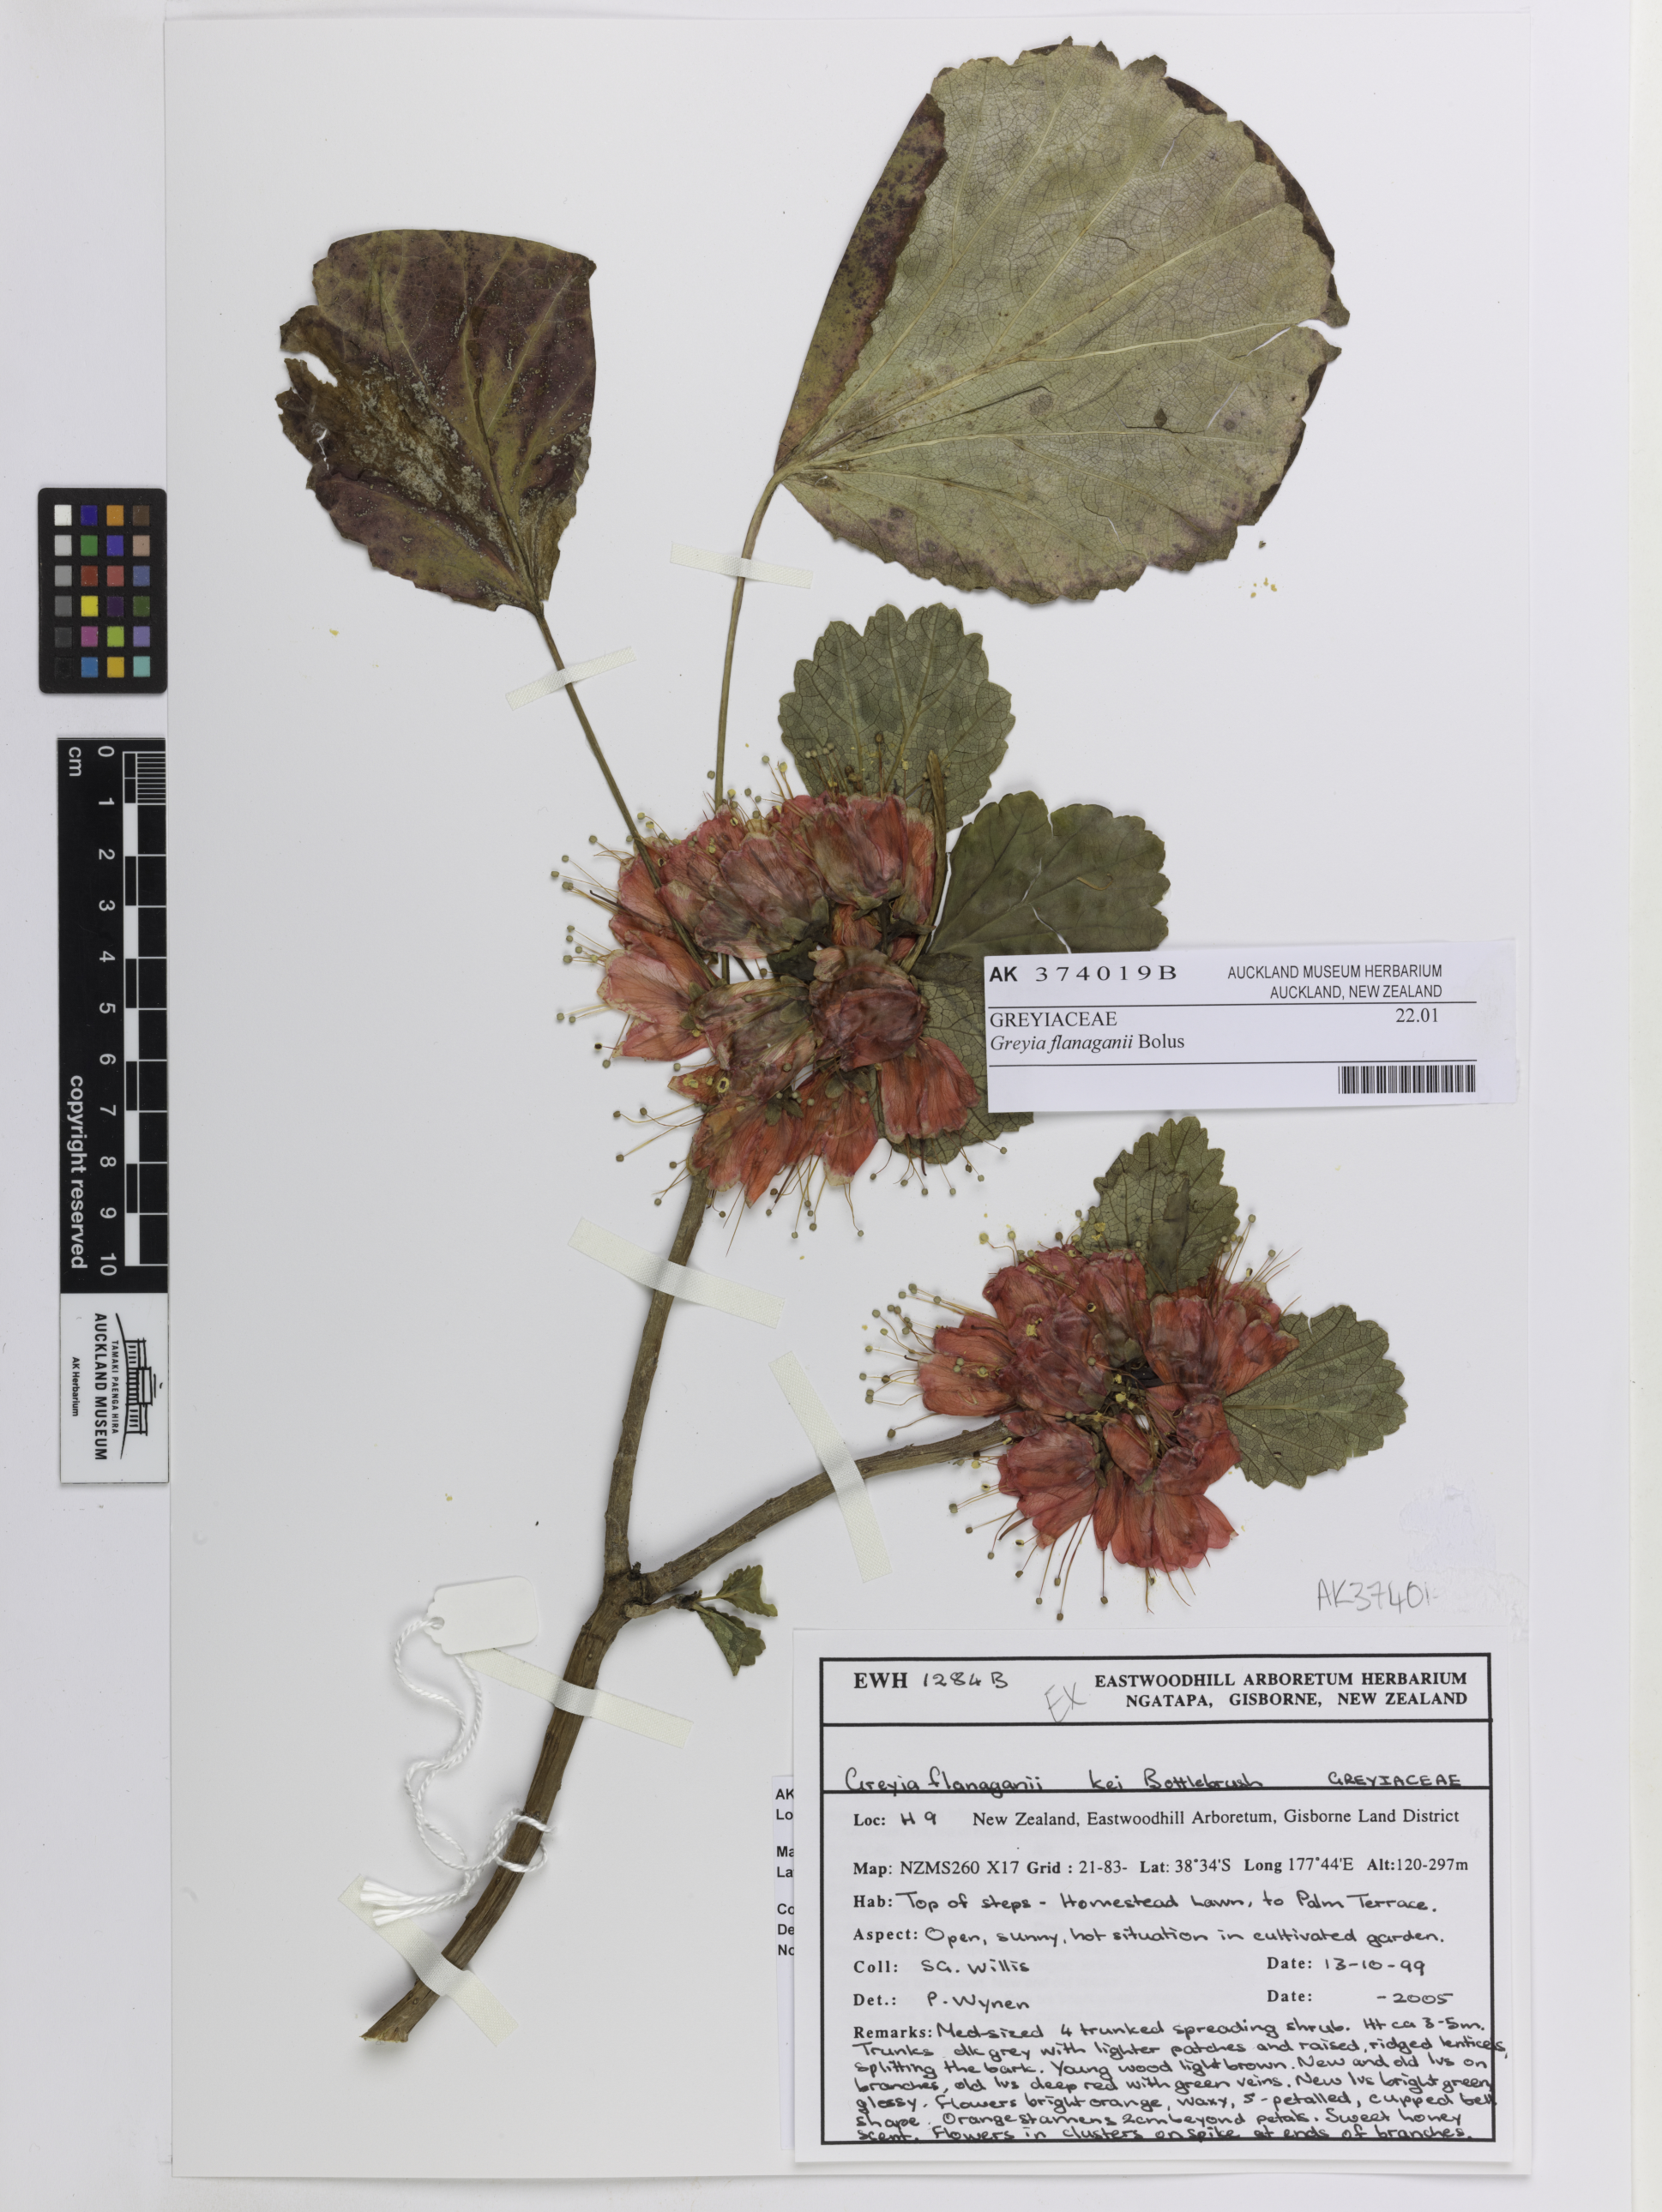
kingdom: Plantae
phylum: Tracheophyta
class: Magnoliopsida
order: Geraniales
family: Francoaceae
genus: Greyia
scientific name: Greyia flanaganii
